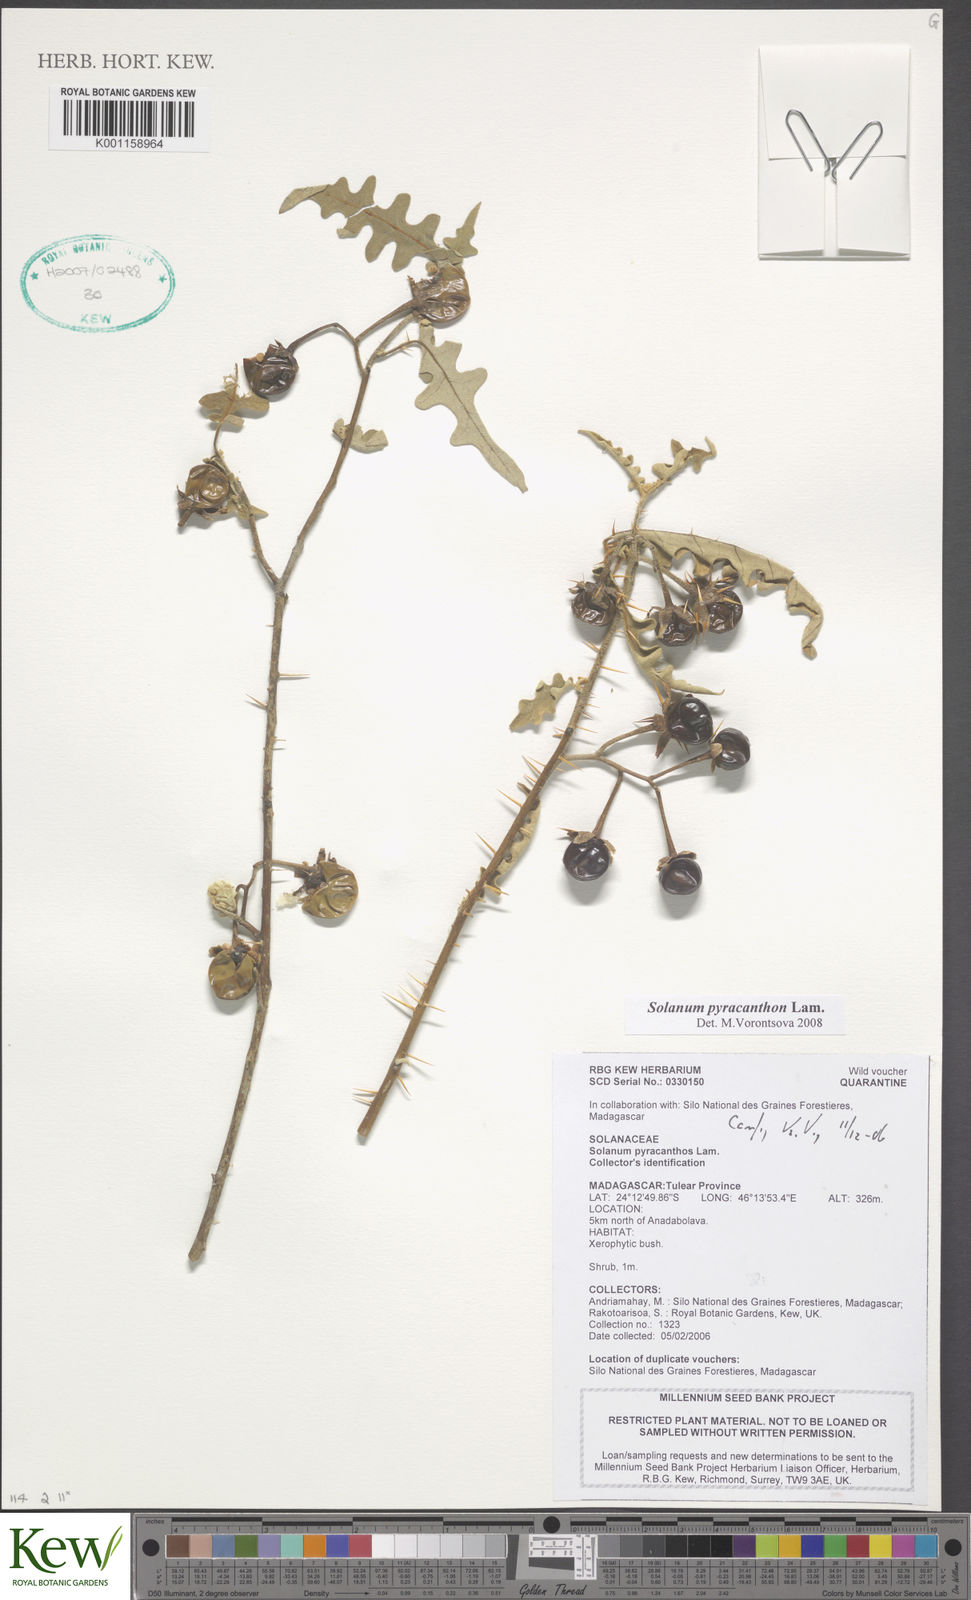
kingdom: Plantae
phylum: Tracheophyta
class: Magnoliopsida
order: Solanales
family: Solanaceae
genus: Solanum
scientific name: Solanum pyracanthos
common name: Porcupine-tomato
